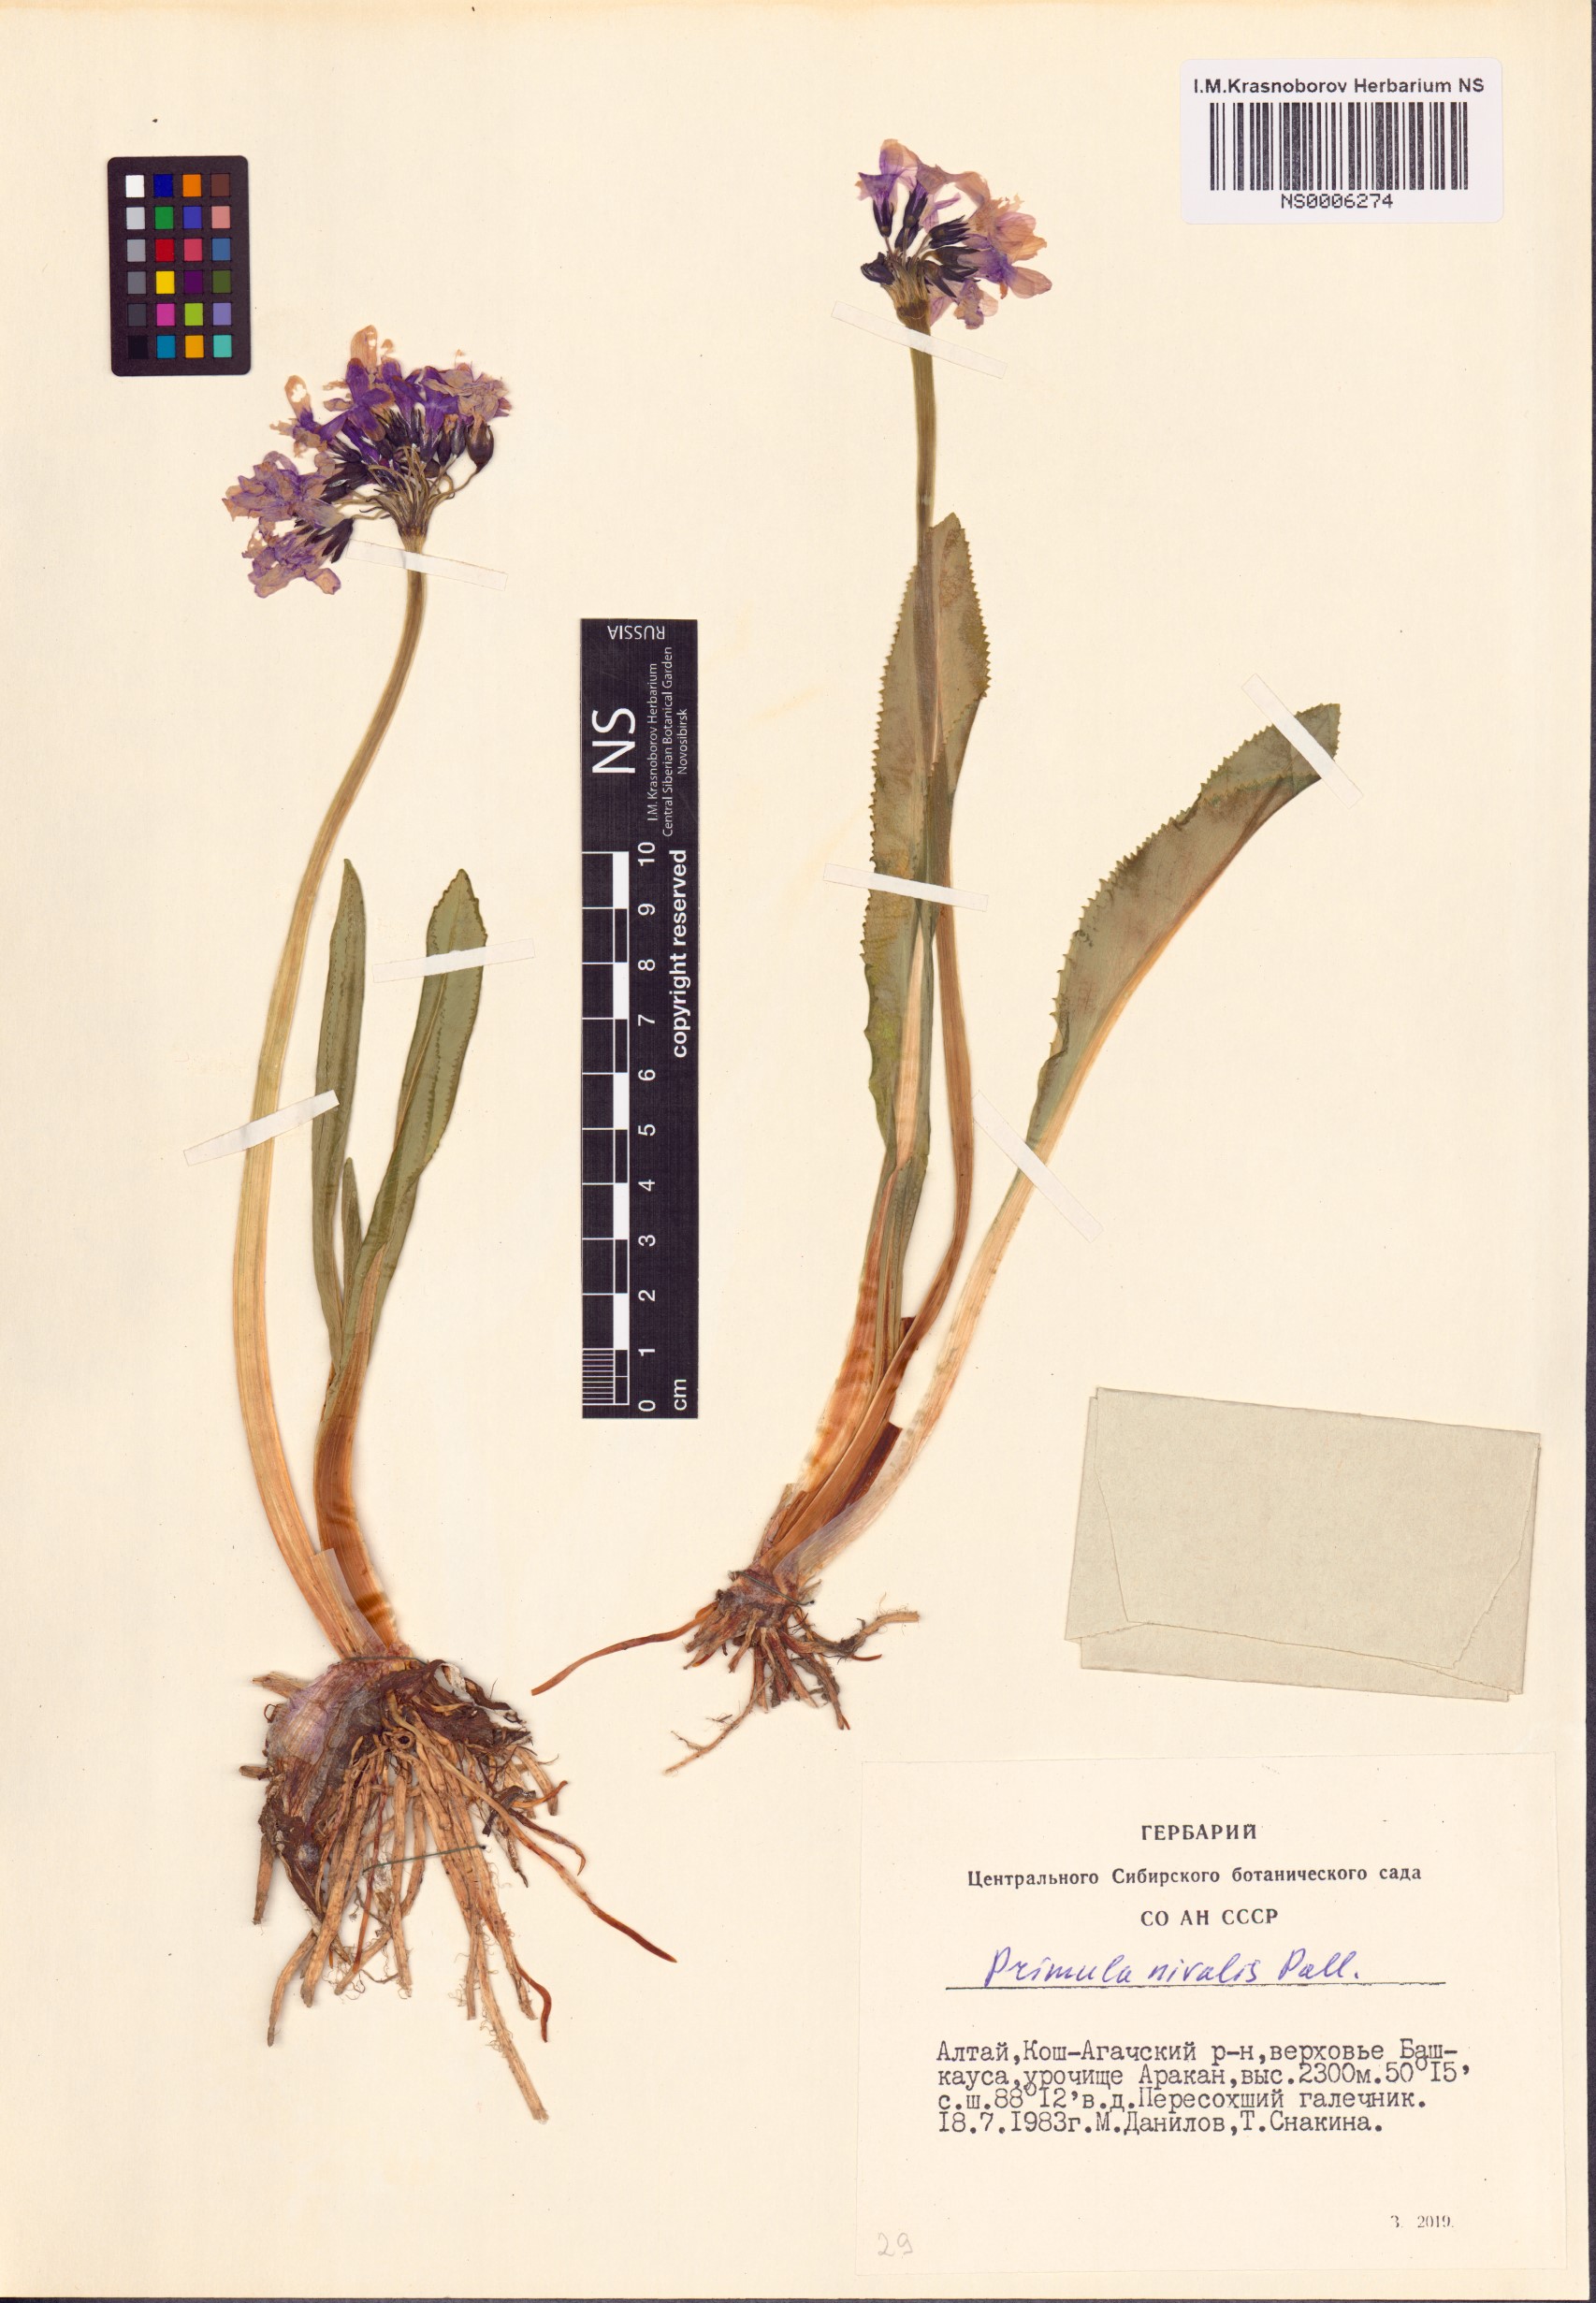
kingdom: Plantae
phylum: Tracheophyta
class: Magnoliopsida
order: Ericales
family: Primulaceae
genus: Primula
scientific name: Primula nivalis
